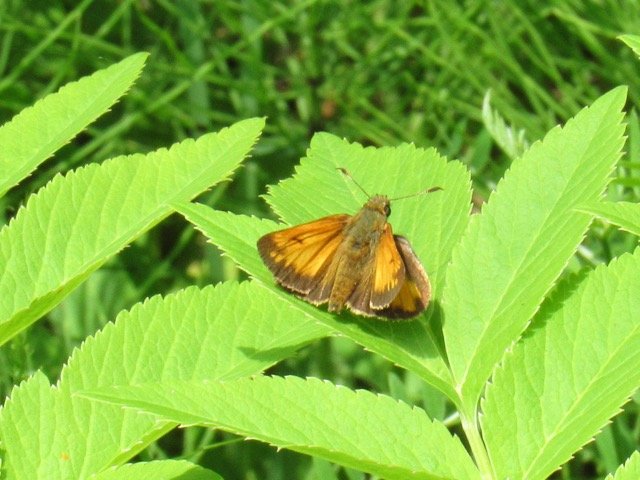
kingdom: Animalia
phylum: Arthropoda
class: Insecta
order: Lepidoptera
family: Hesperiidae
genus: Lon
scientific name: Lon hobomok
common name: Hobomok Skipper
